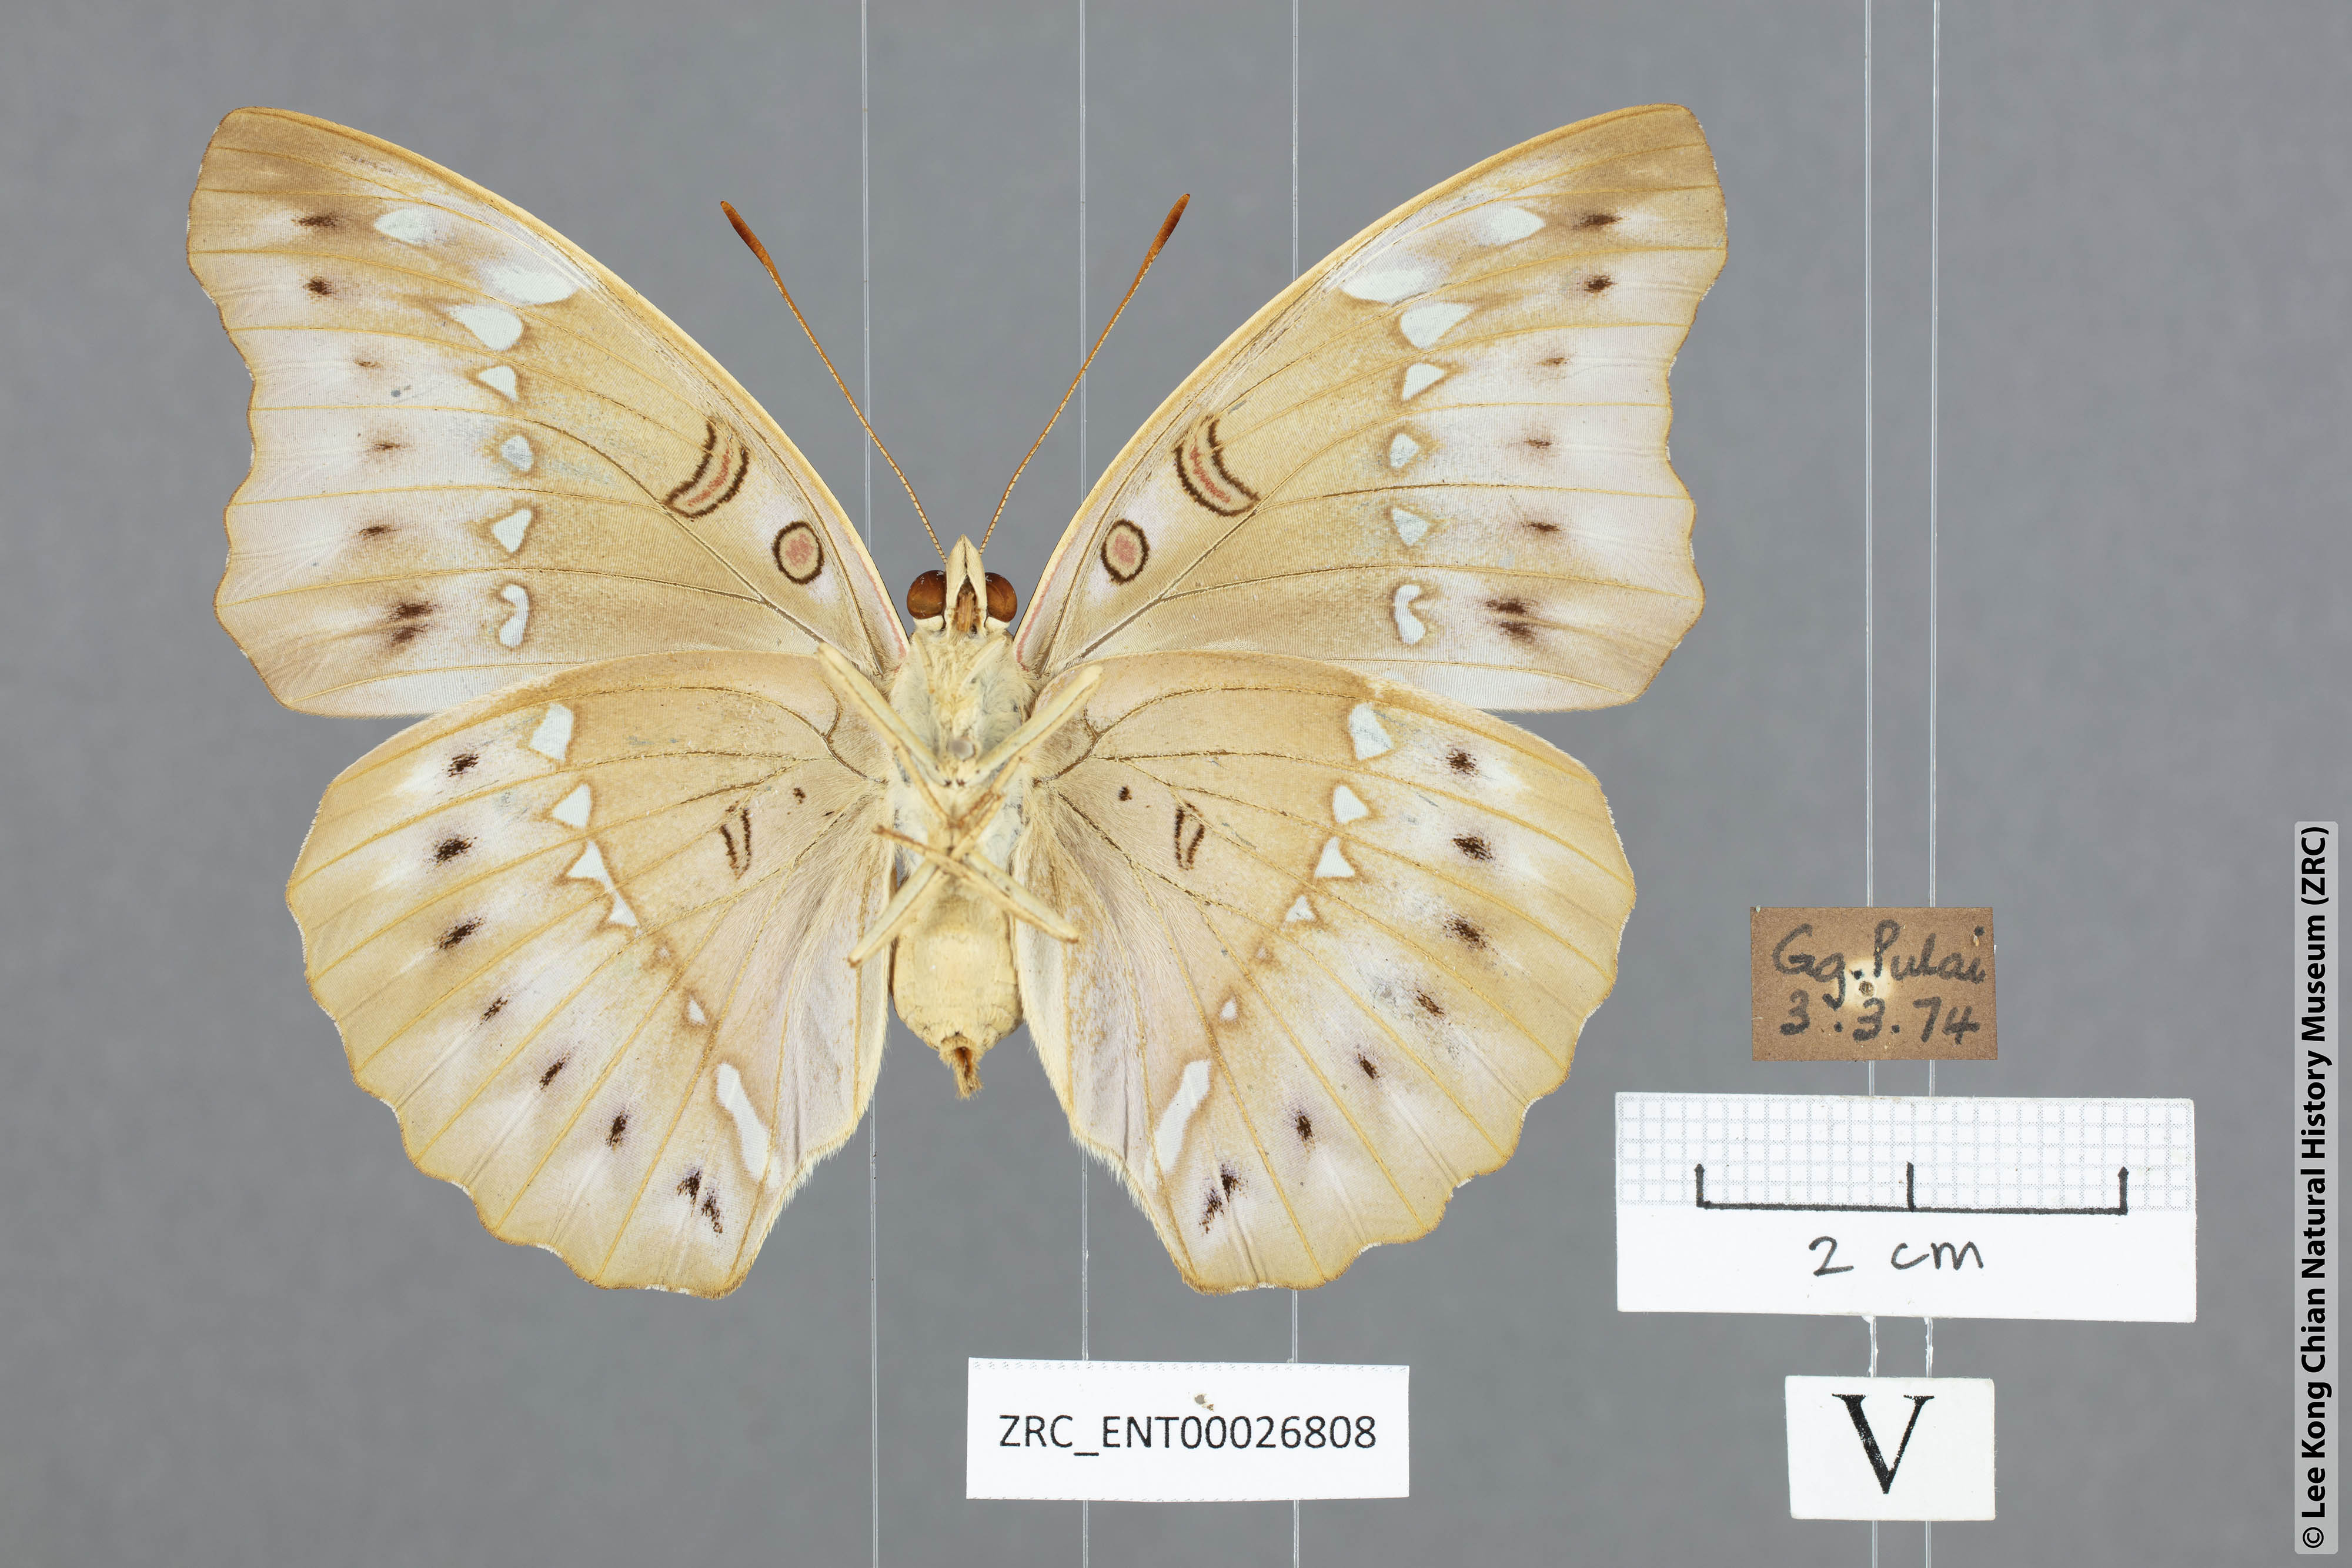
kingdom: Animalia
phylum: Arthropoda
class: Insecta
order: Lepidoptera
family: Nymphalidae
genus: Euthalia
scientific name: Euthalia Bassarona teuta
